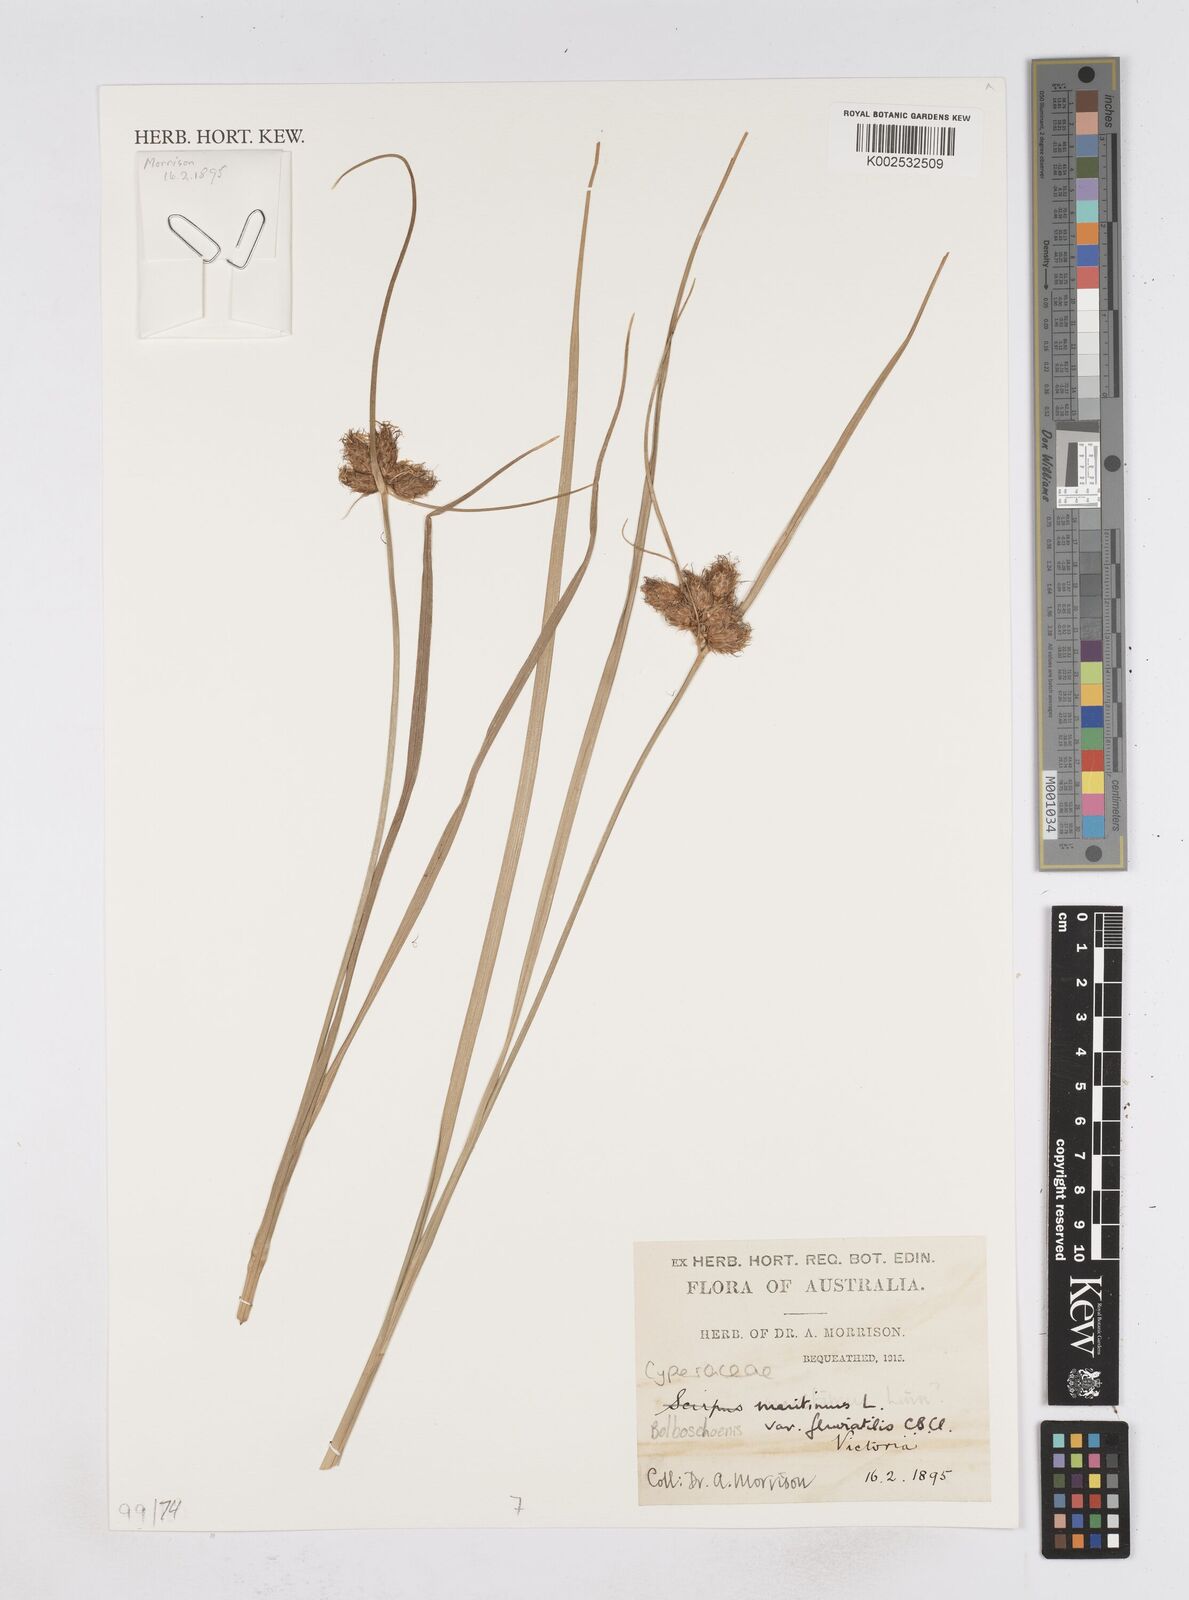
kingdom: Plantae
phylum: Tracheophyta
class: Liliopsida
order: Poales
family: Cyperaceae
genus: Bolboschoenus
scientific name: Bolboschoenus maritimus
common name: Sea club-rush
